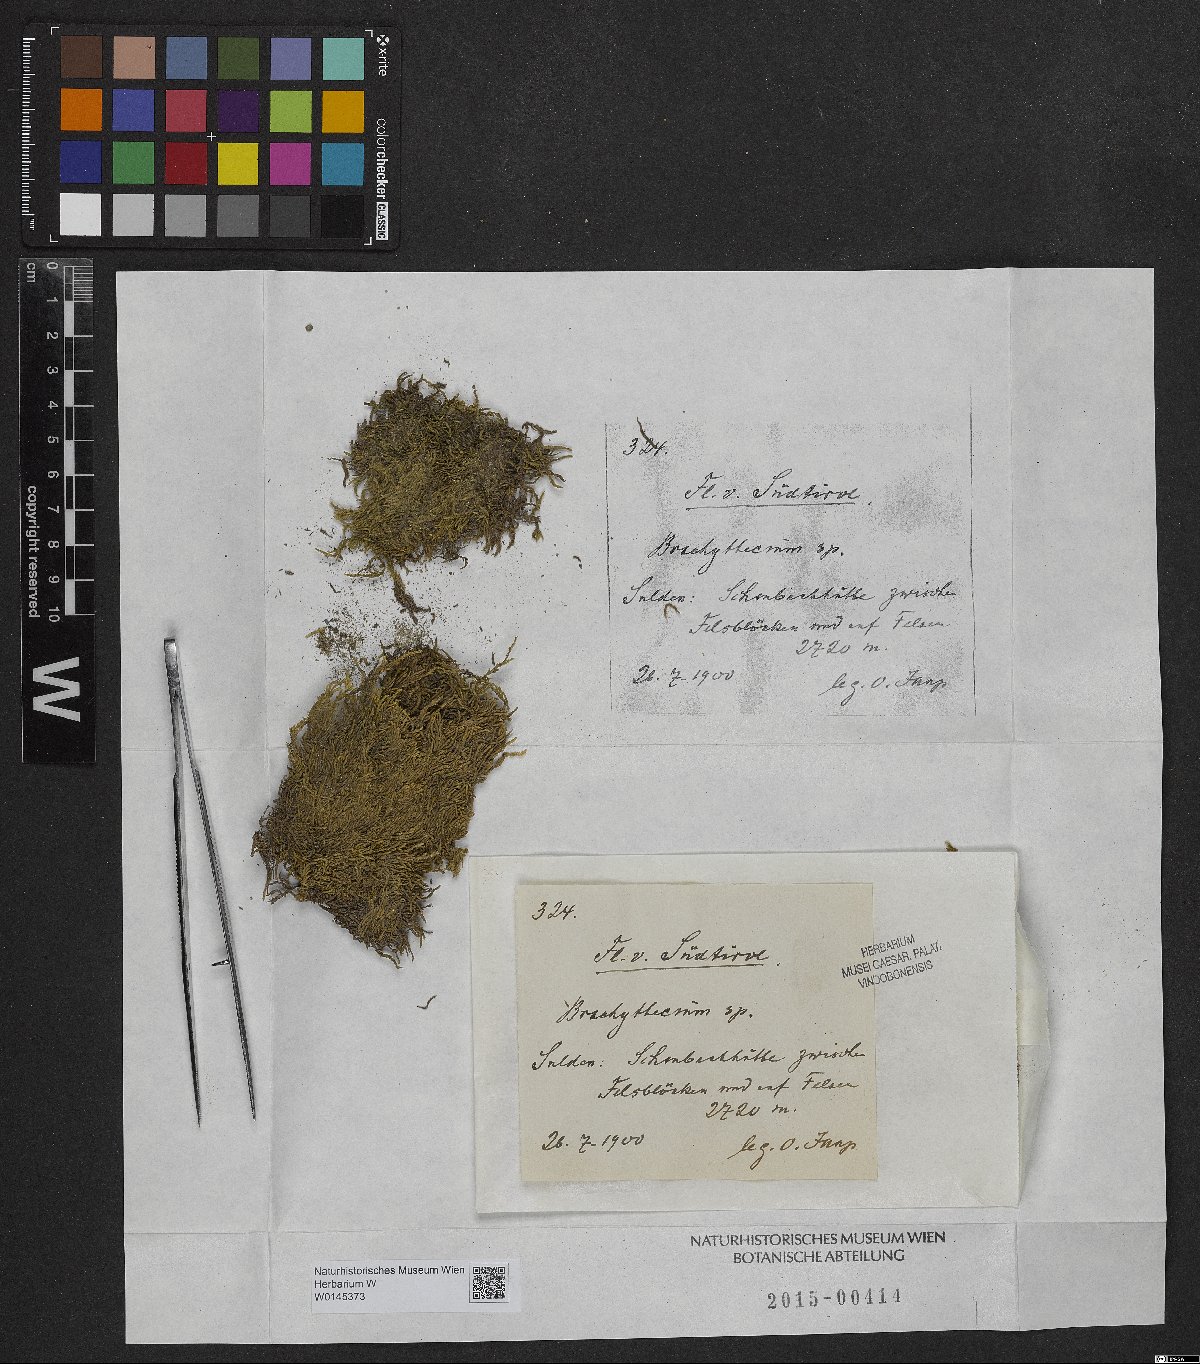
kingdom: Plantae
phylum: Bryophyta
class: Bryopsida
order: Hypnales
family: Brachytheciaceae
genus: Brachythecium
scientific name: Brachythecium
